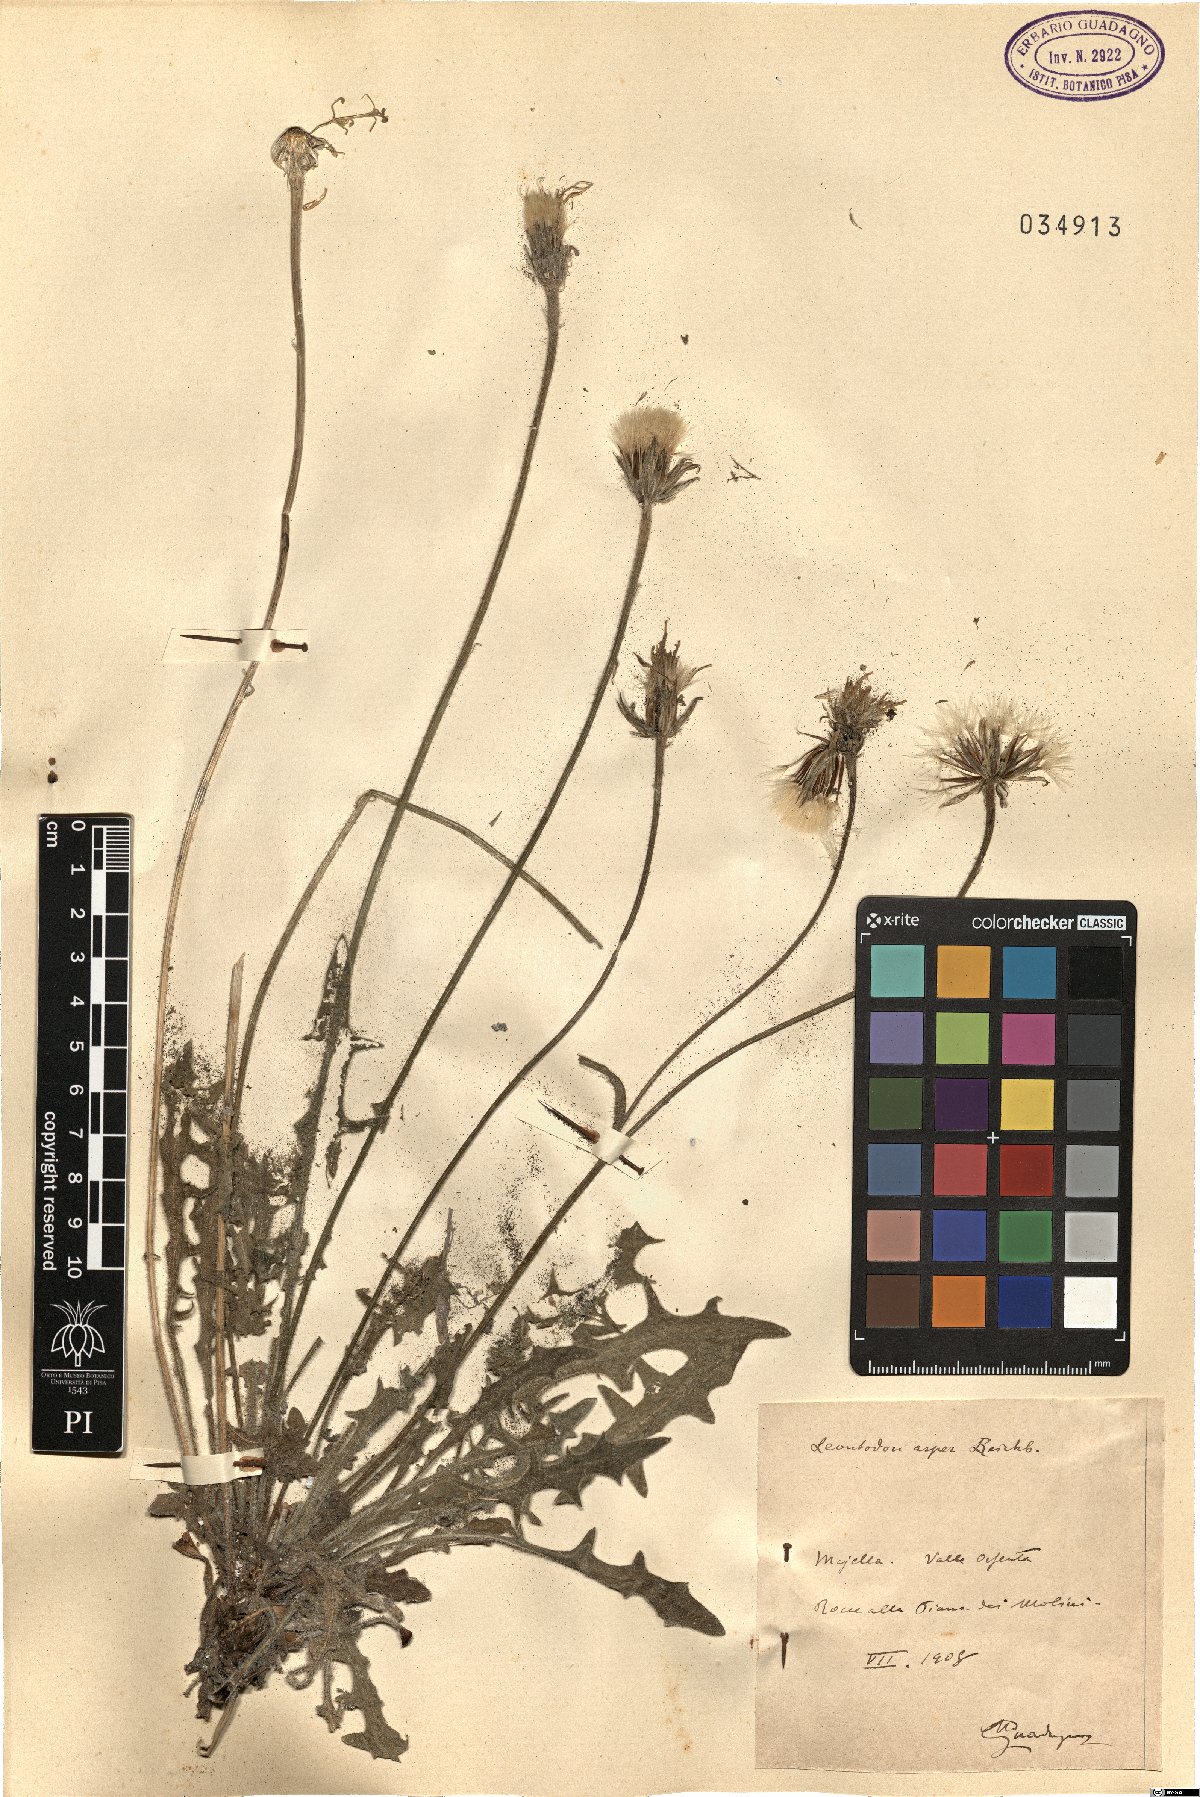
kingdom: Plantae
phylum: Tracheophyta
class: Magnoliopsida
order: Asterales
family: Asteraceae
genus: Leontodon
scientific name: Leontodon biscutellifolius
